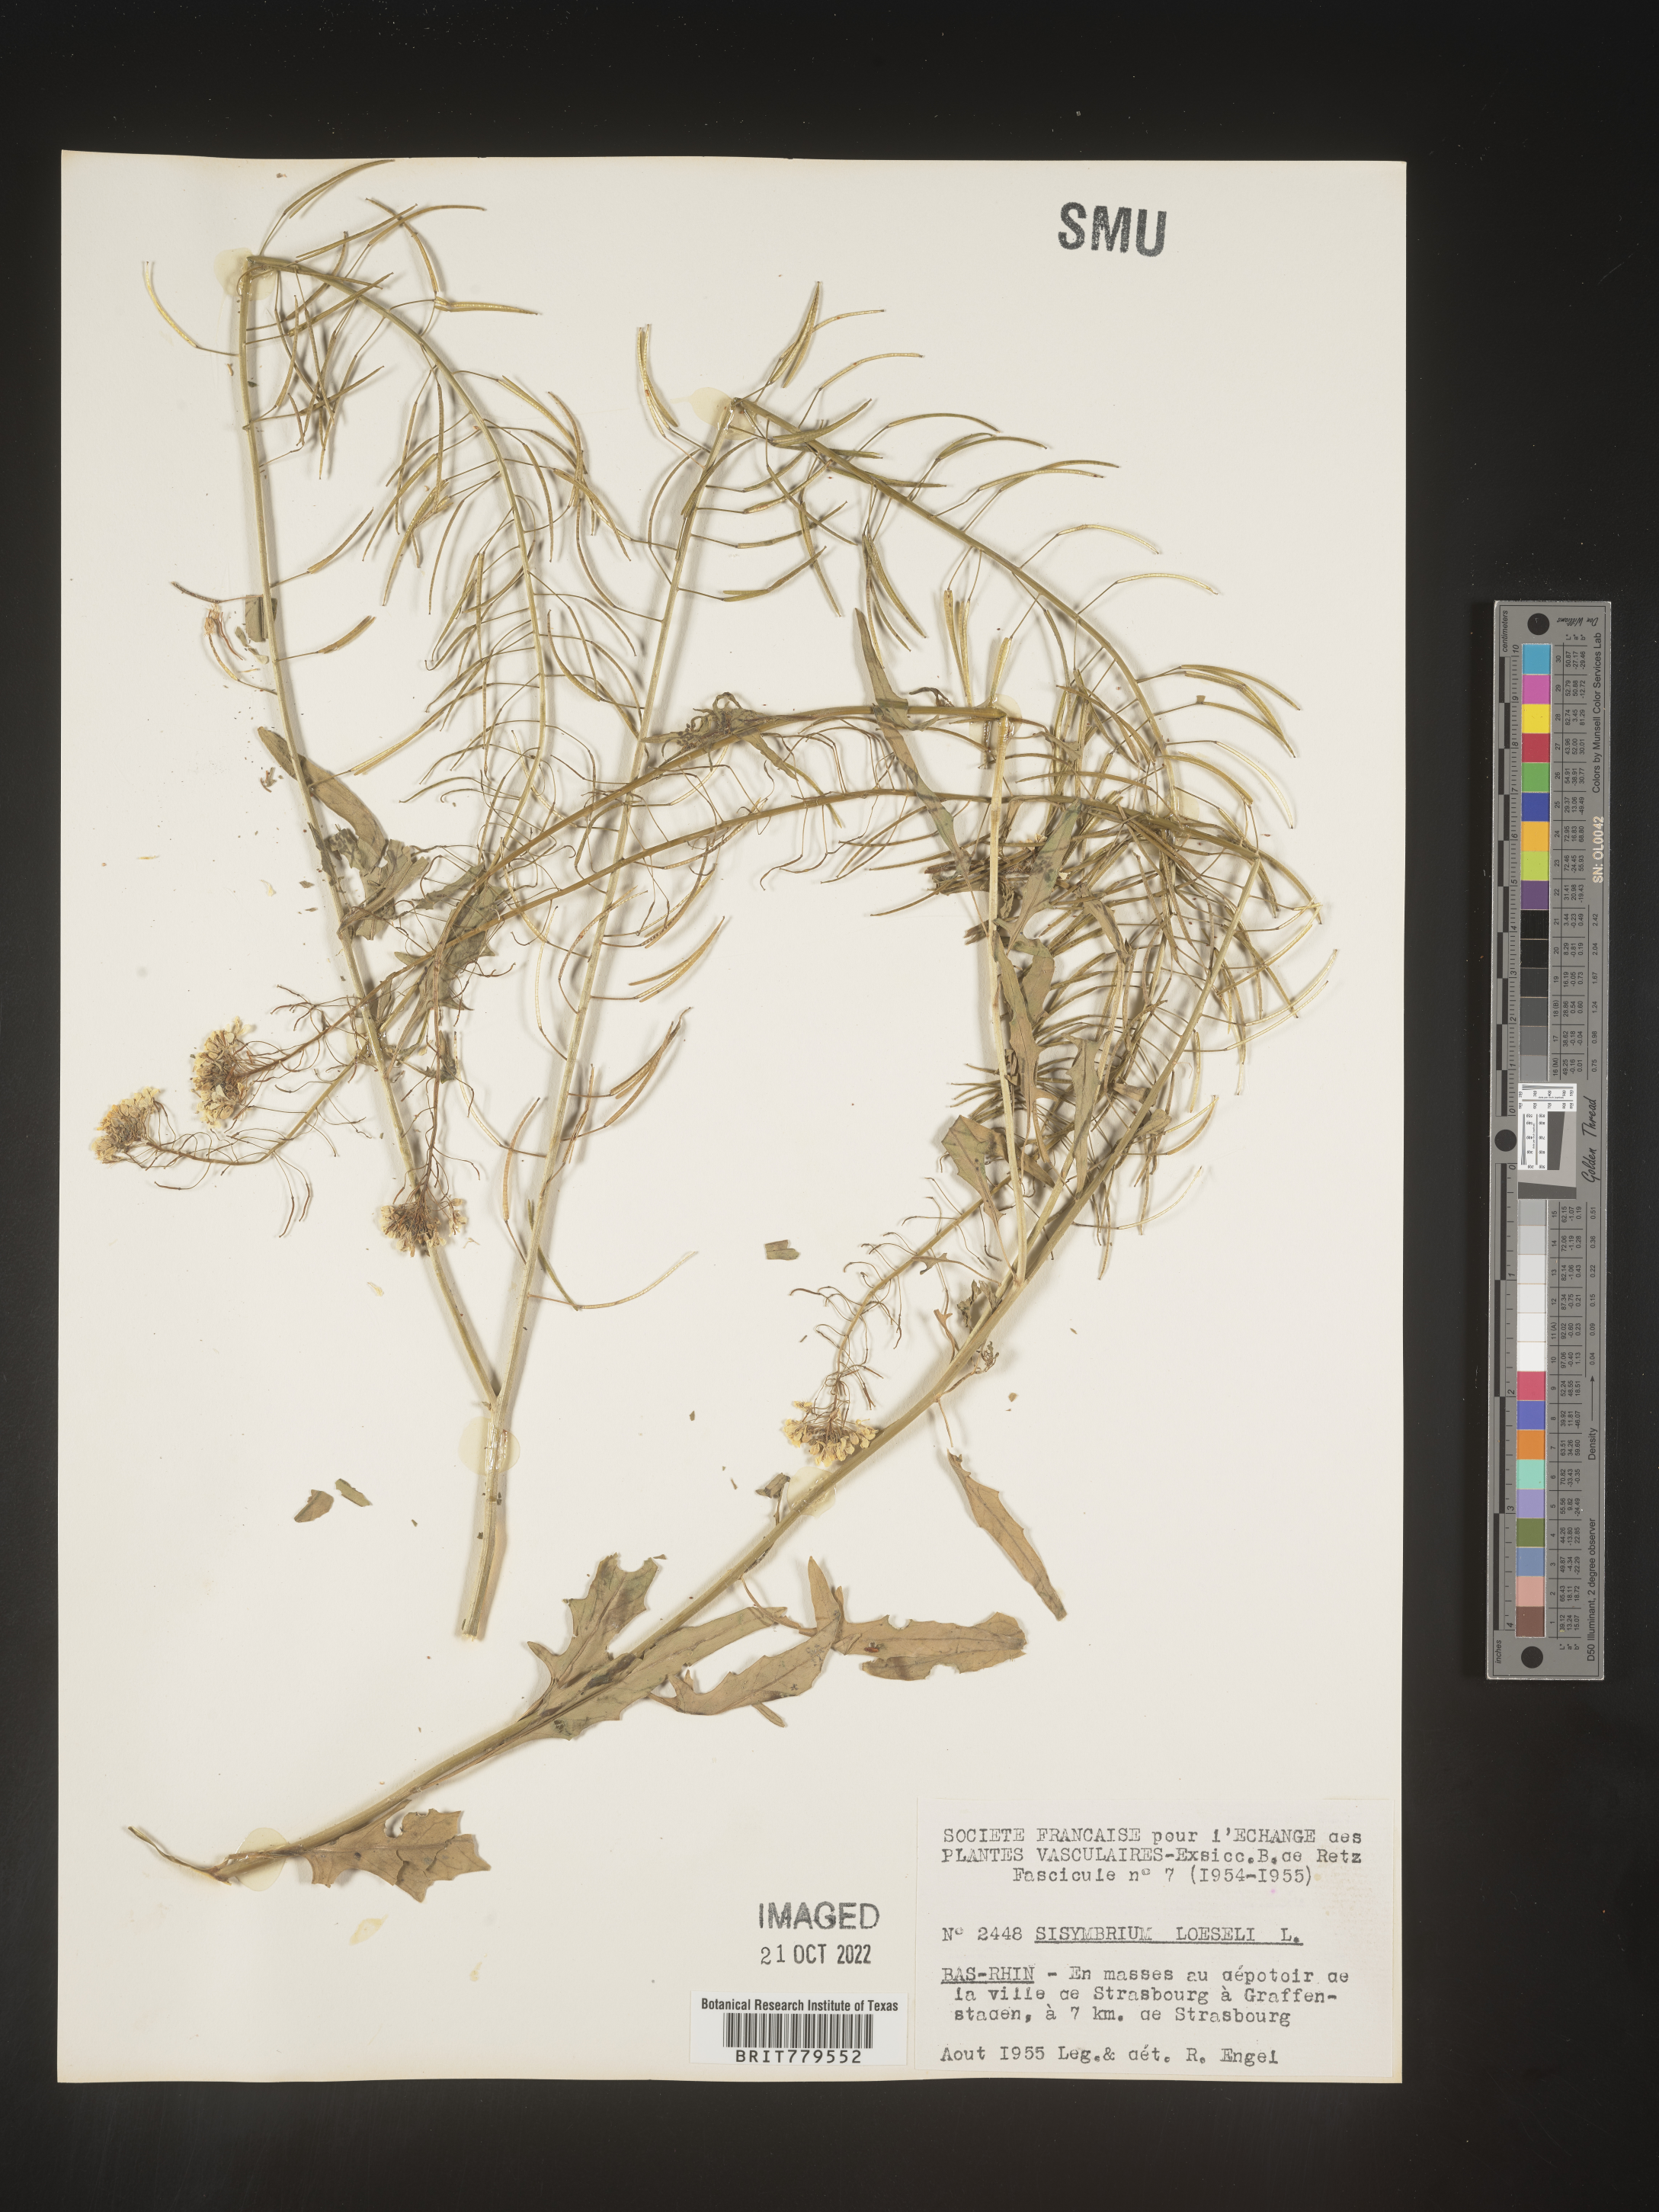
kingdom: Plantae
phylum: Tracheophyta
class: Magnoliopsida
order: Brassicales
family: Brassicaceae
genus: Sisymbrium
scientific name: Sisymbrium
